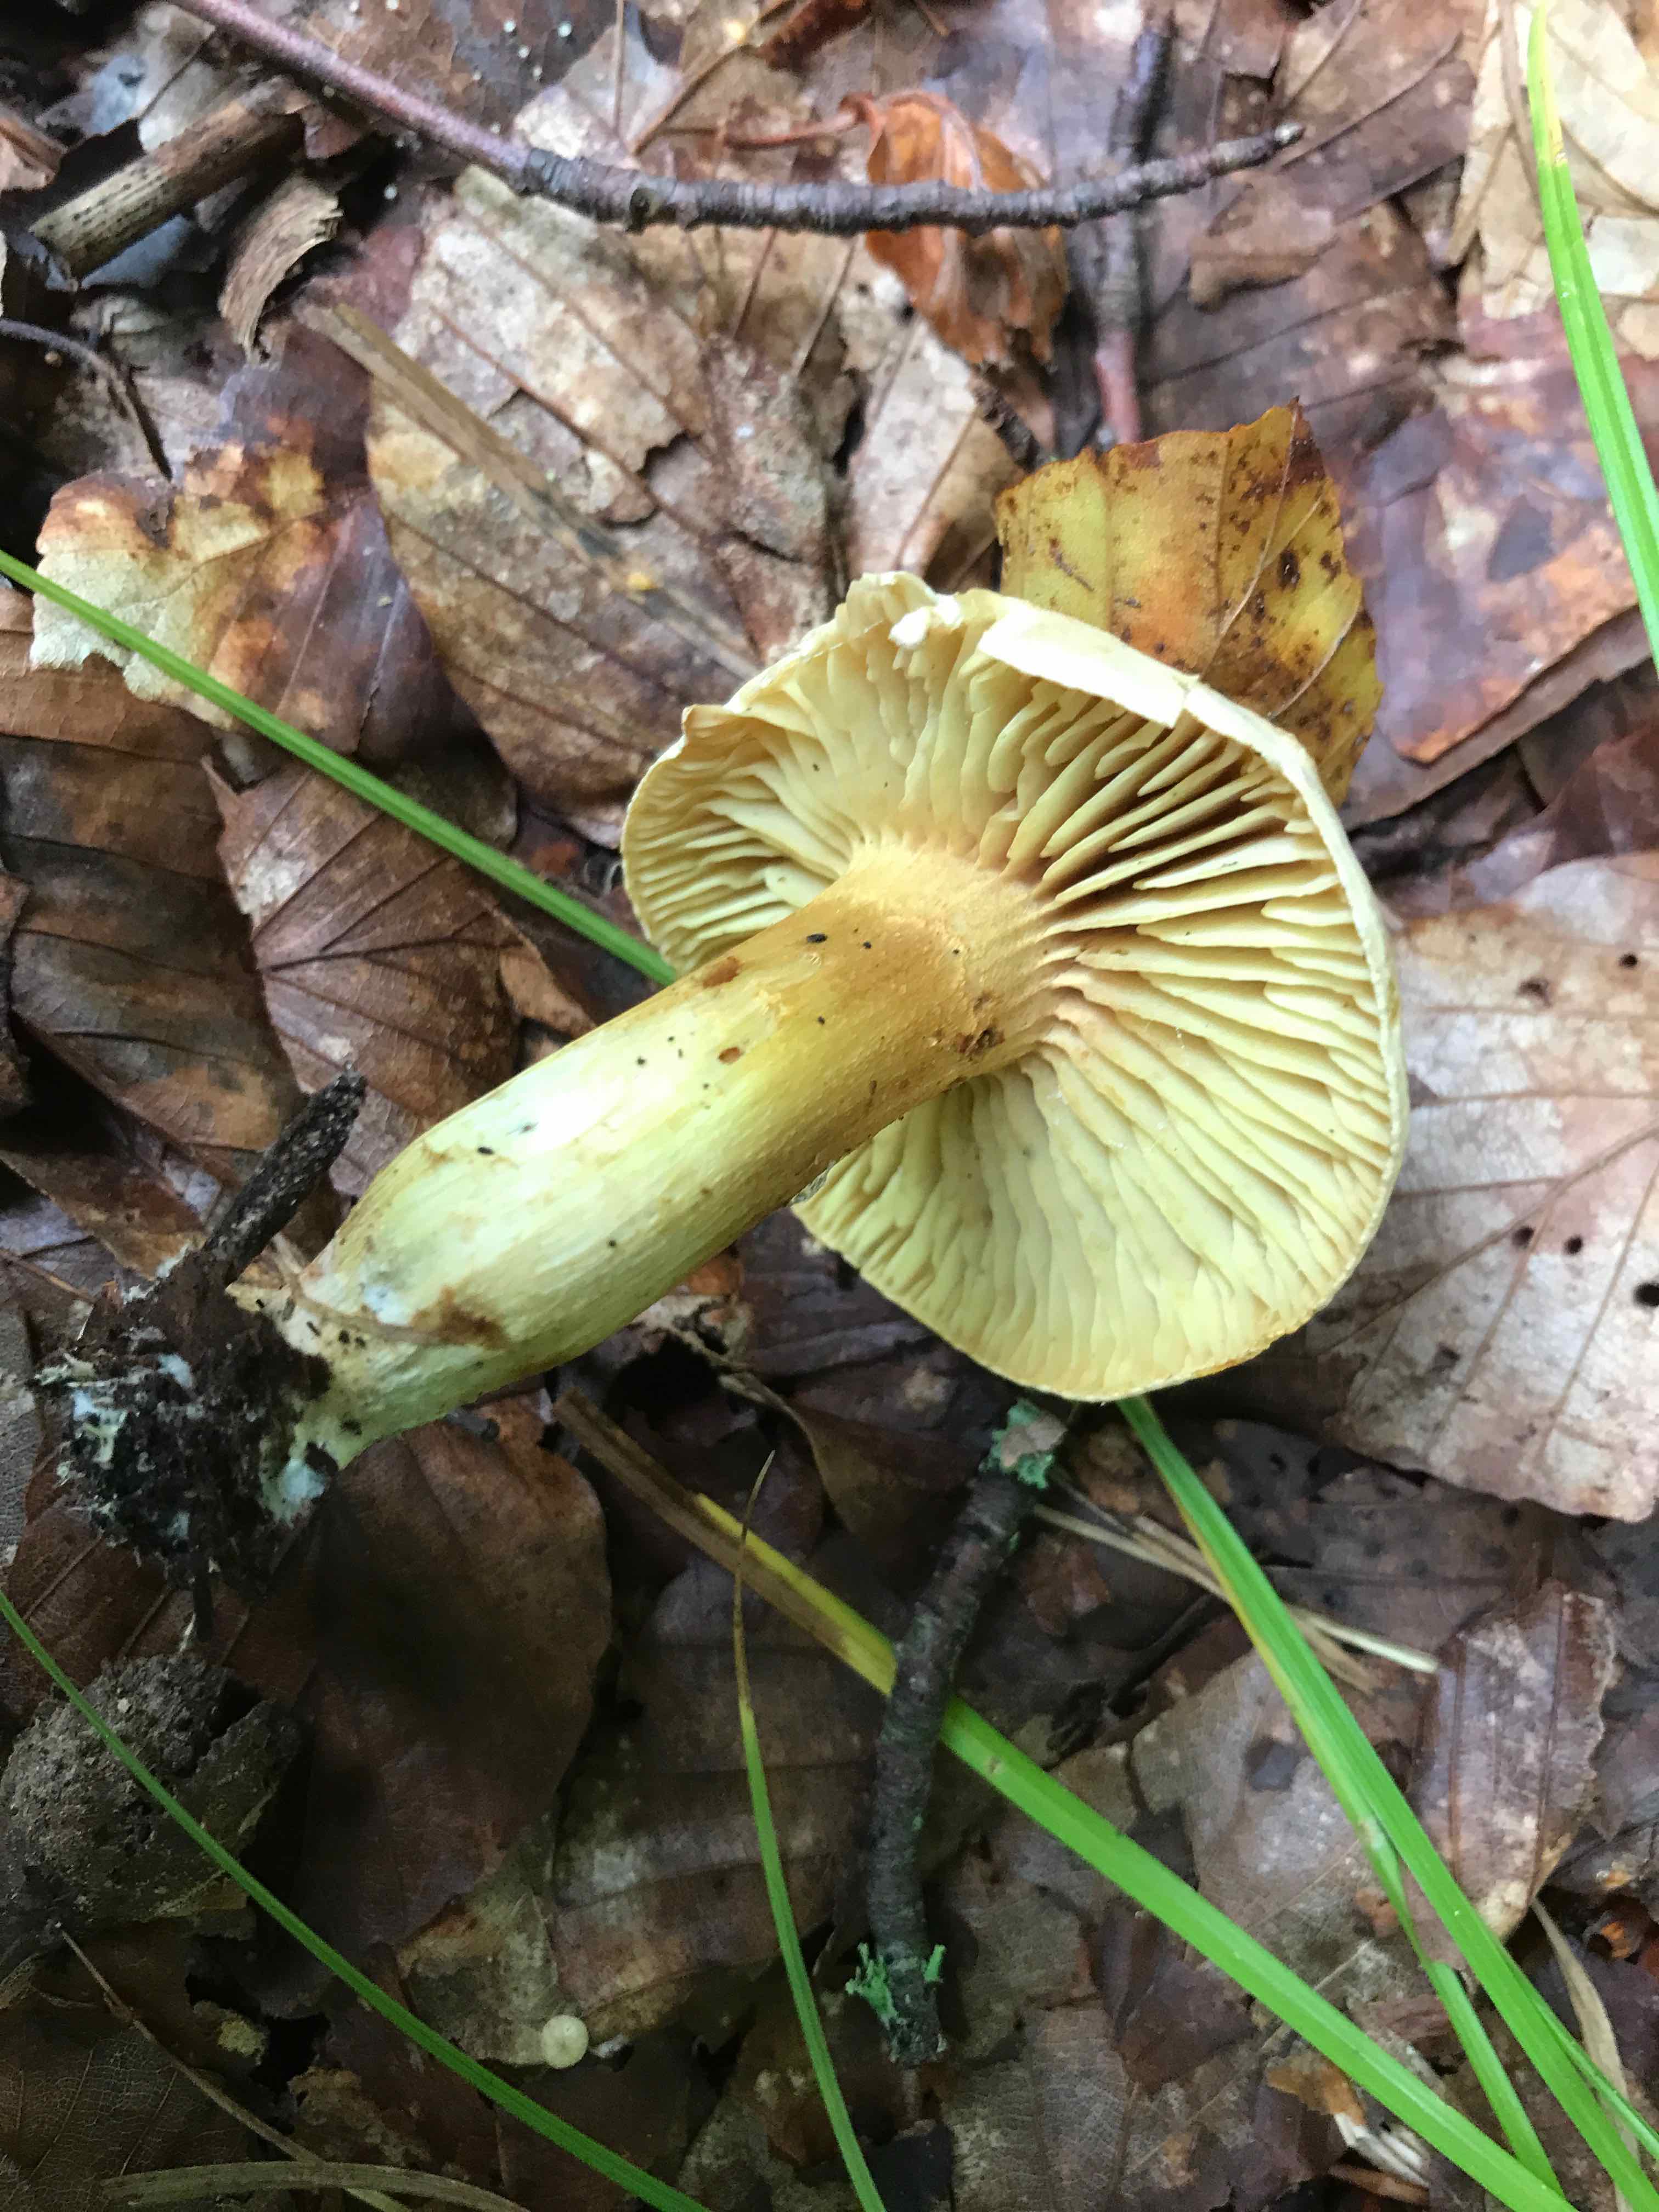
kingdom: Fungi
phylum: Basidiomycota
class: Agaricomycetes
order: Agaricales
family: Tricholomataceae
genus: Tricholoma
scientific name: Tricholoma sulphureum
